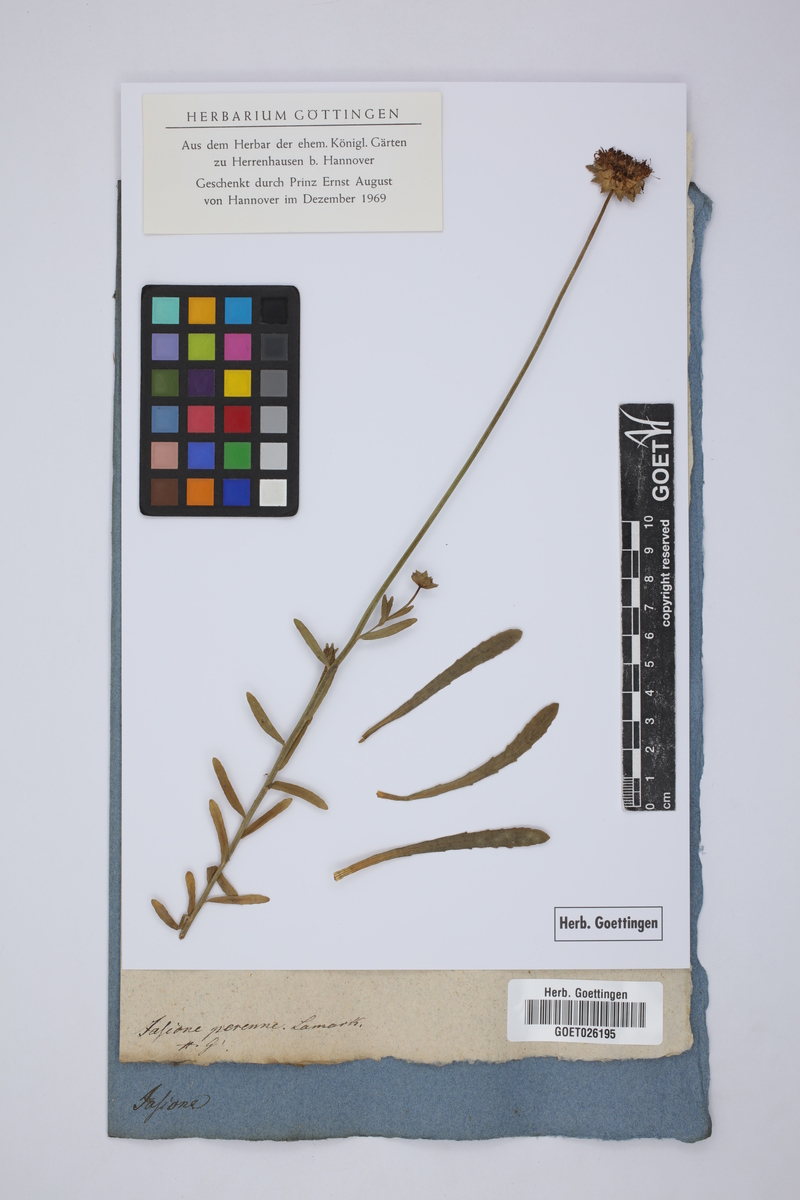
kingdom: Plantae
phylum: Tracheophyta
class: Magnoliopsida
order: Asterales
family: Campanulaceae
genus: Jasione
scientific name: Jasione laevis
